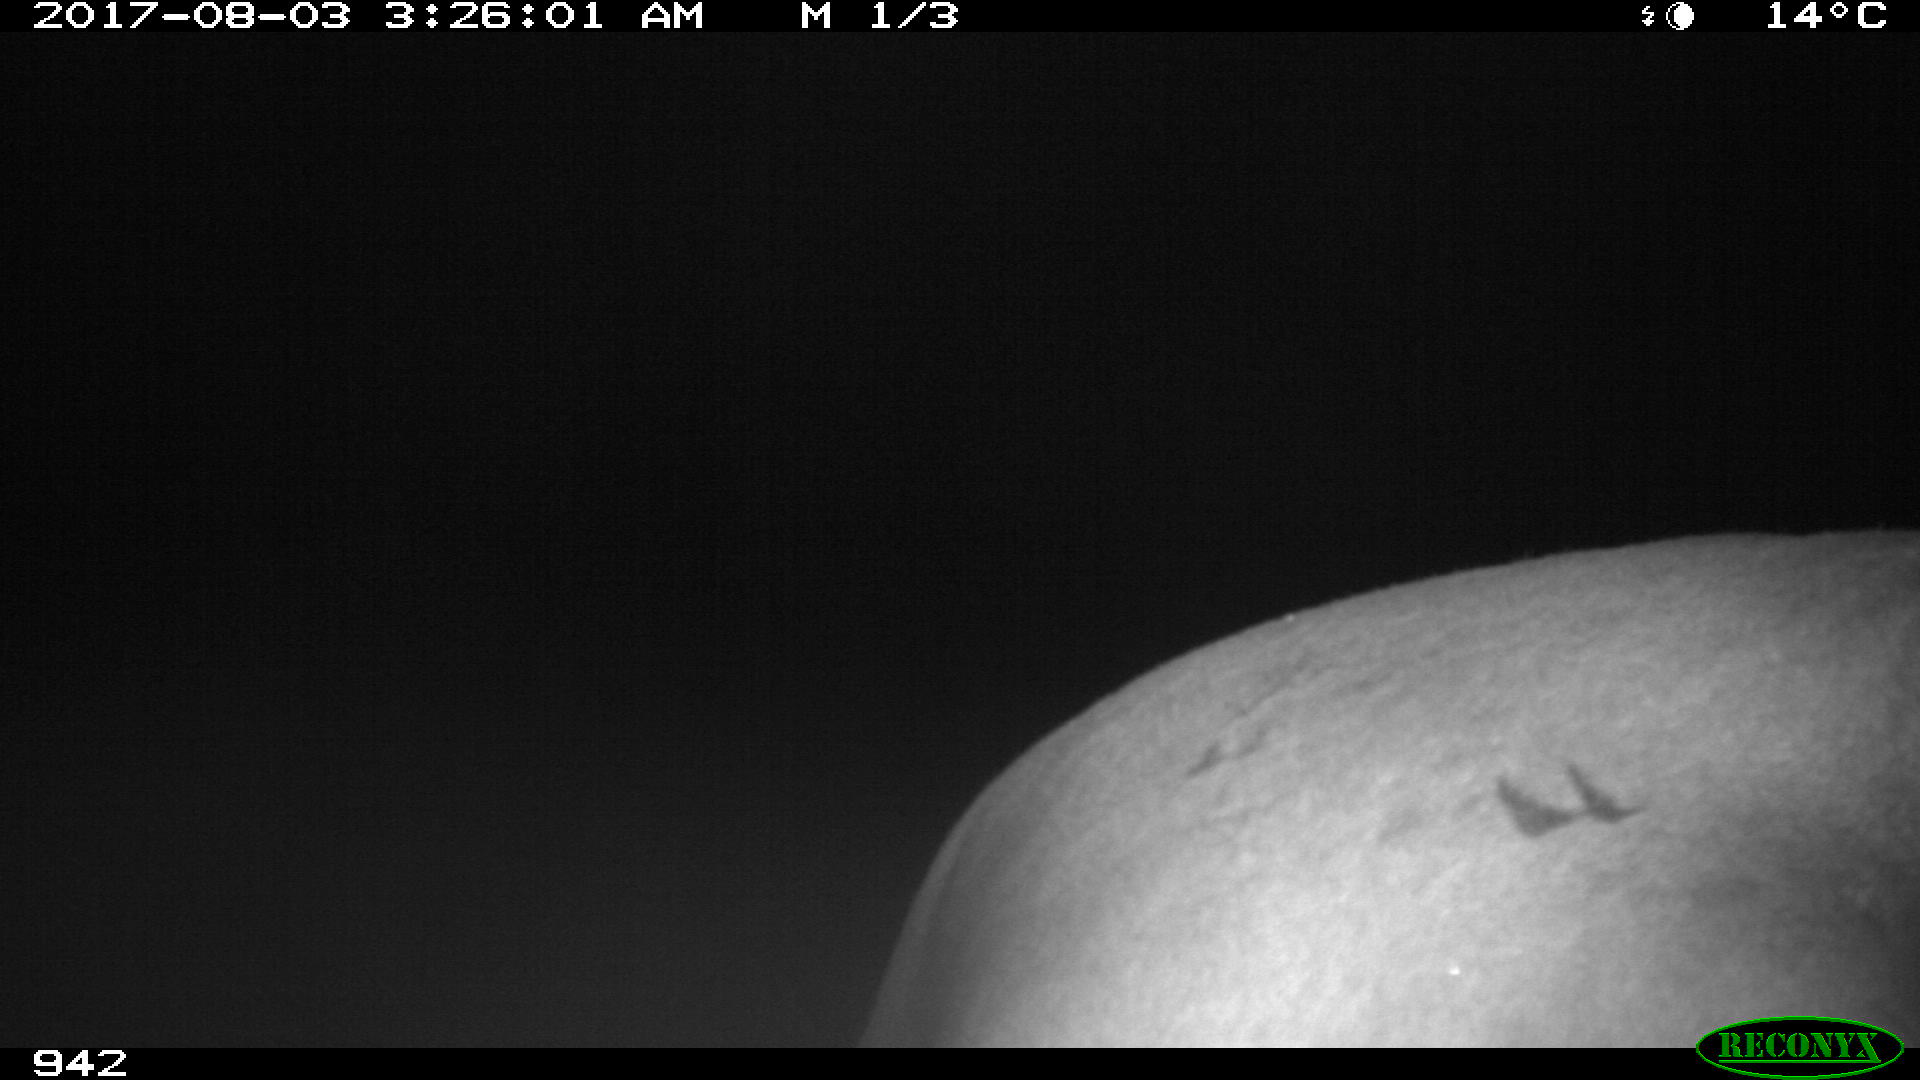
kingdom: Animalia
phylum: Chordata
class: Mammalia
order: Perissodactyla
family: Equidae
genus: Equus
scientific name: Equus caballus
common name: Horse
